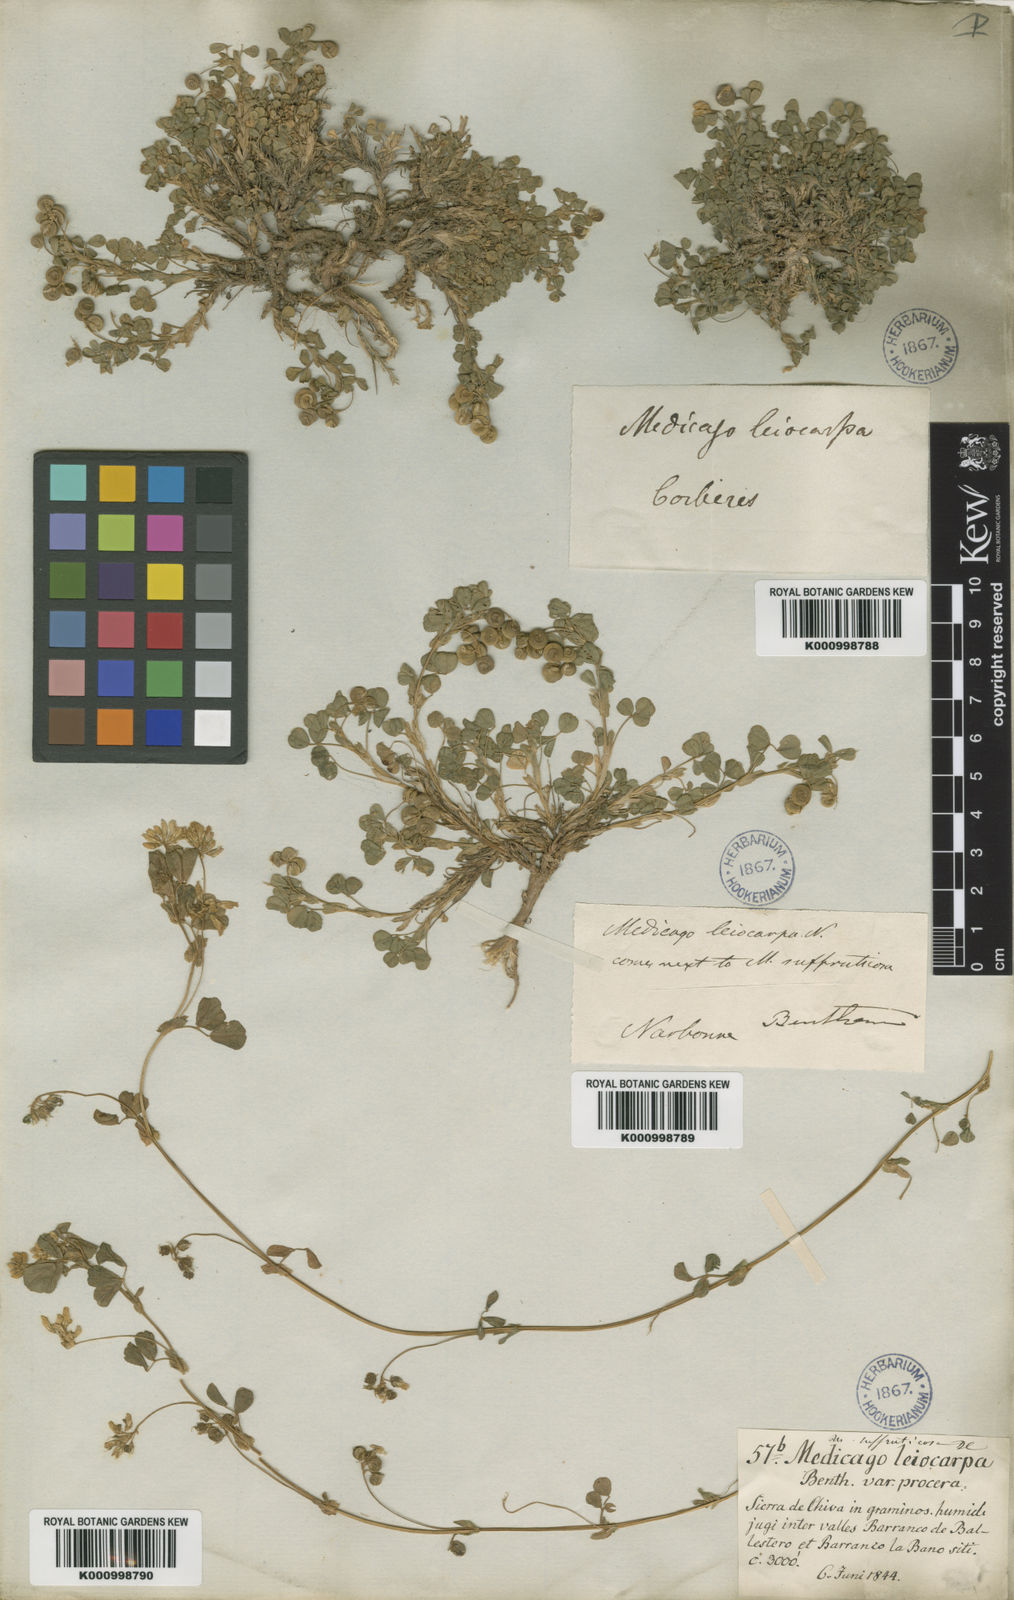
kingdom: Plantae
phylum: Tracheophyta
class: Magnoliopsida
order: Fabales
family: Fabaceae
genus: Medicago
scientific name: Medicago suffruticosa
